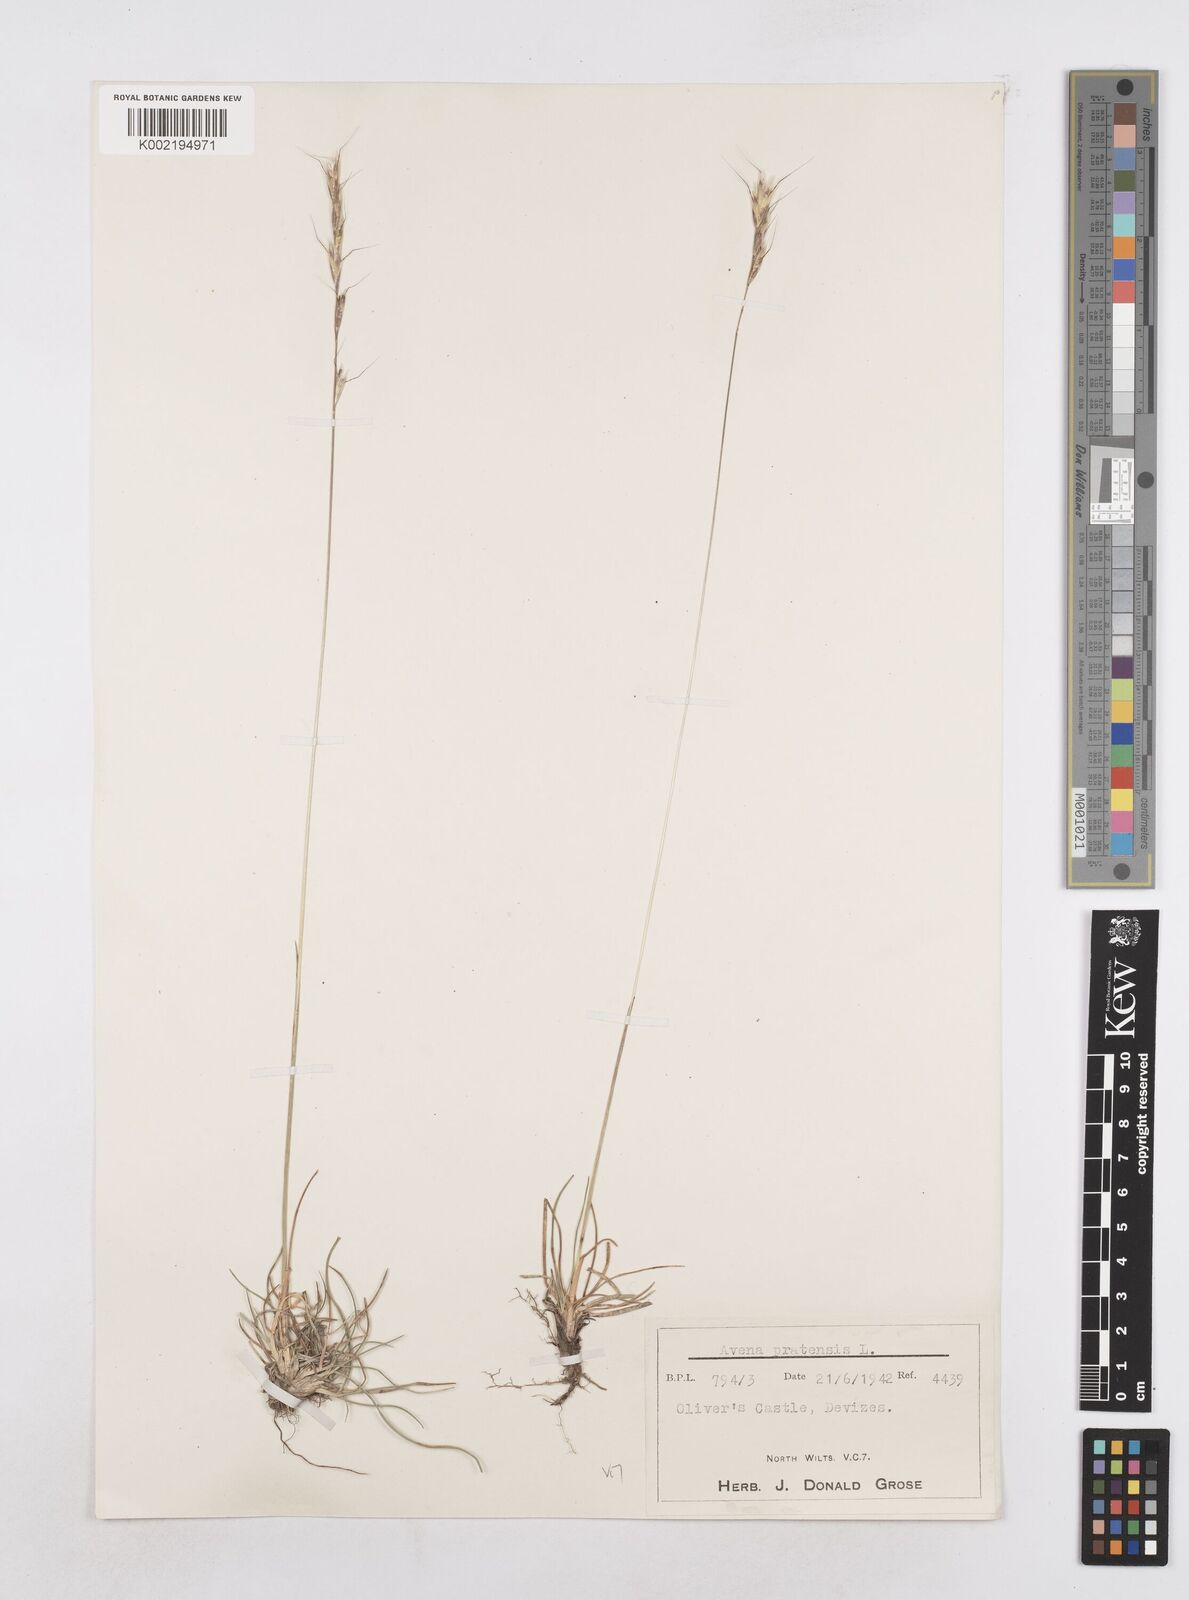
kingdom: Plantae
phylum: Tracheophyta
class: Liliopsida
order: Poales
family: Poaceae
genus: Helictochloa
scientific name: Helictochloa pratensis
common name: Meadow oat grass
